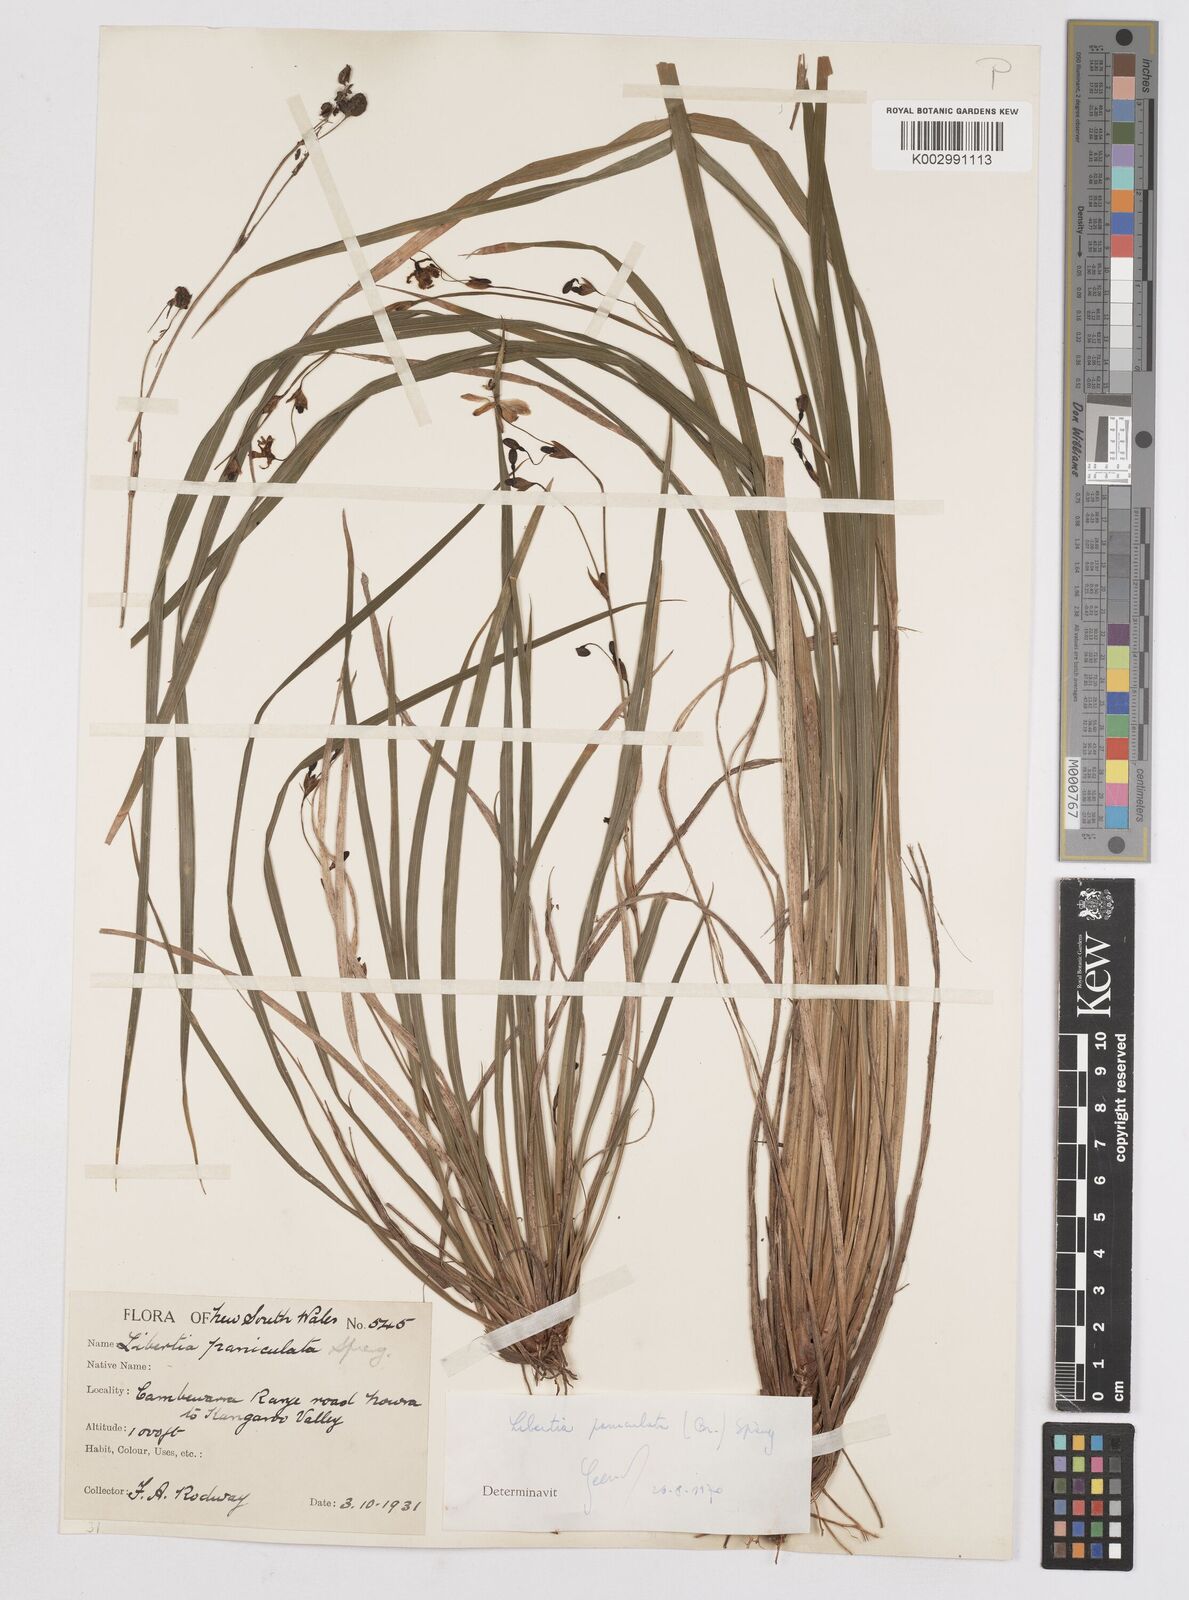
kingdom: Plantae
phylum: Tracheophyta
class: Liliopsida
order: Asparagales
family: Iridaceae
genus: Libertia
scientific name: Libertia paniculata
